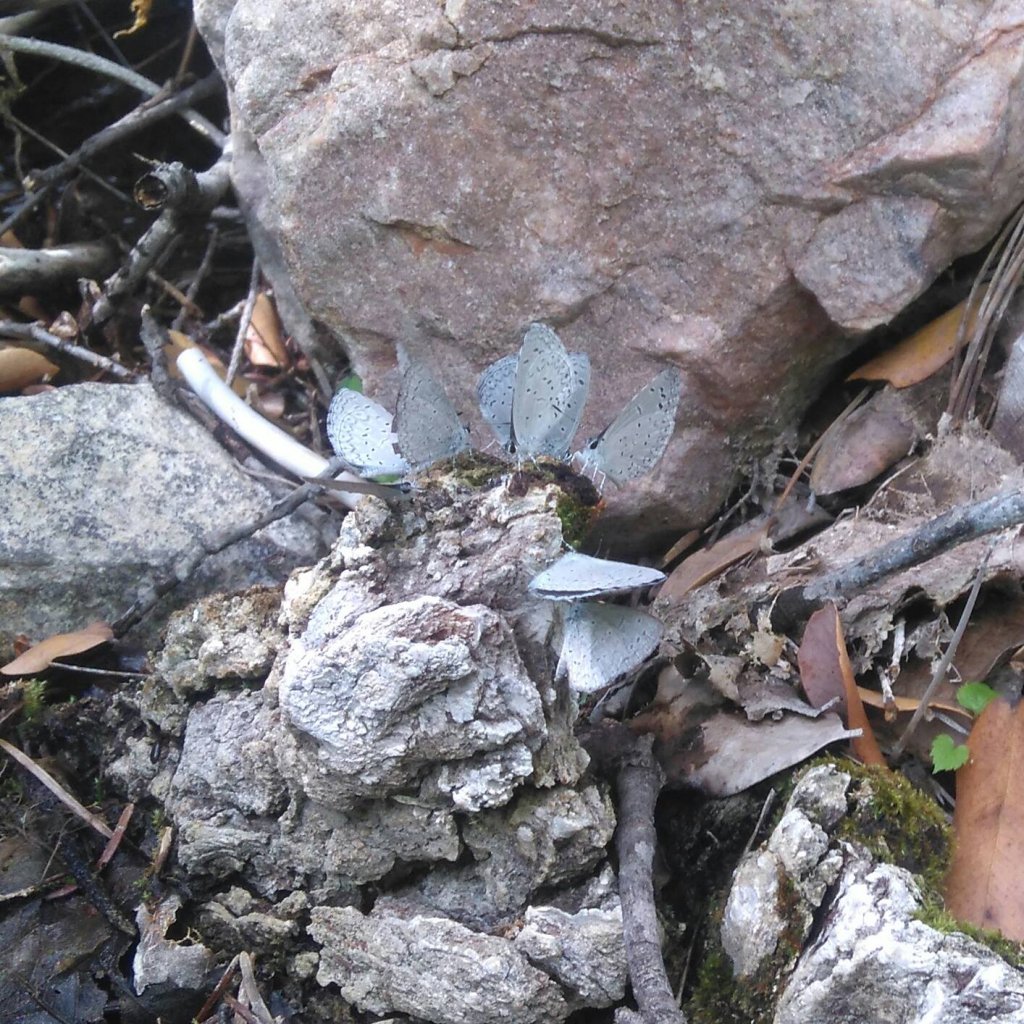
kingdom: Animalia
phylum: Arthropoda
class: Insecta
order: Lepidoptera
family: Lycaenidae
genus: Celastrina
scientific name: Celastrina ladon
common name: Spring Azure
